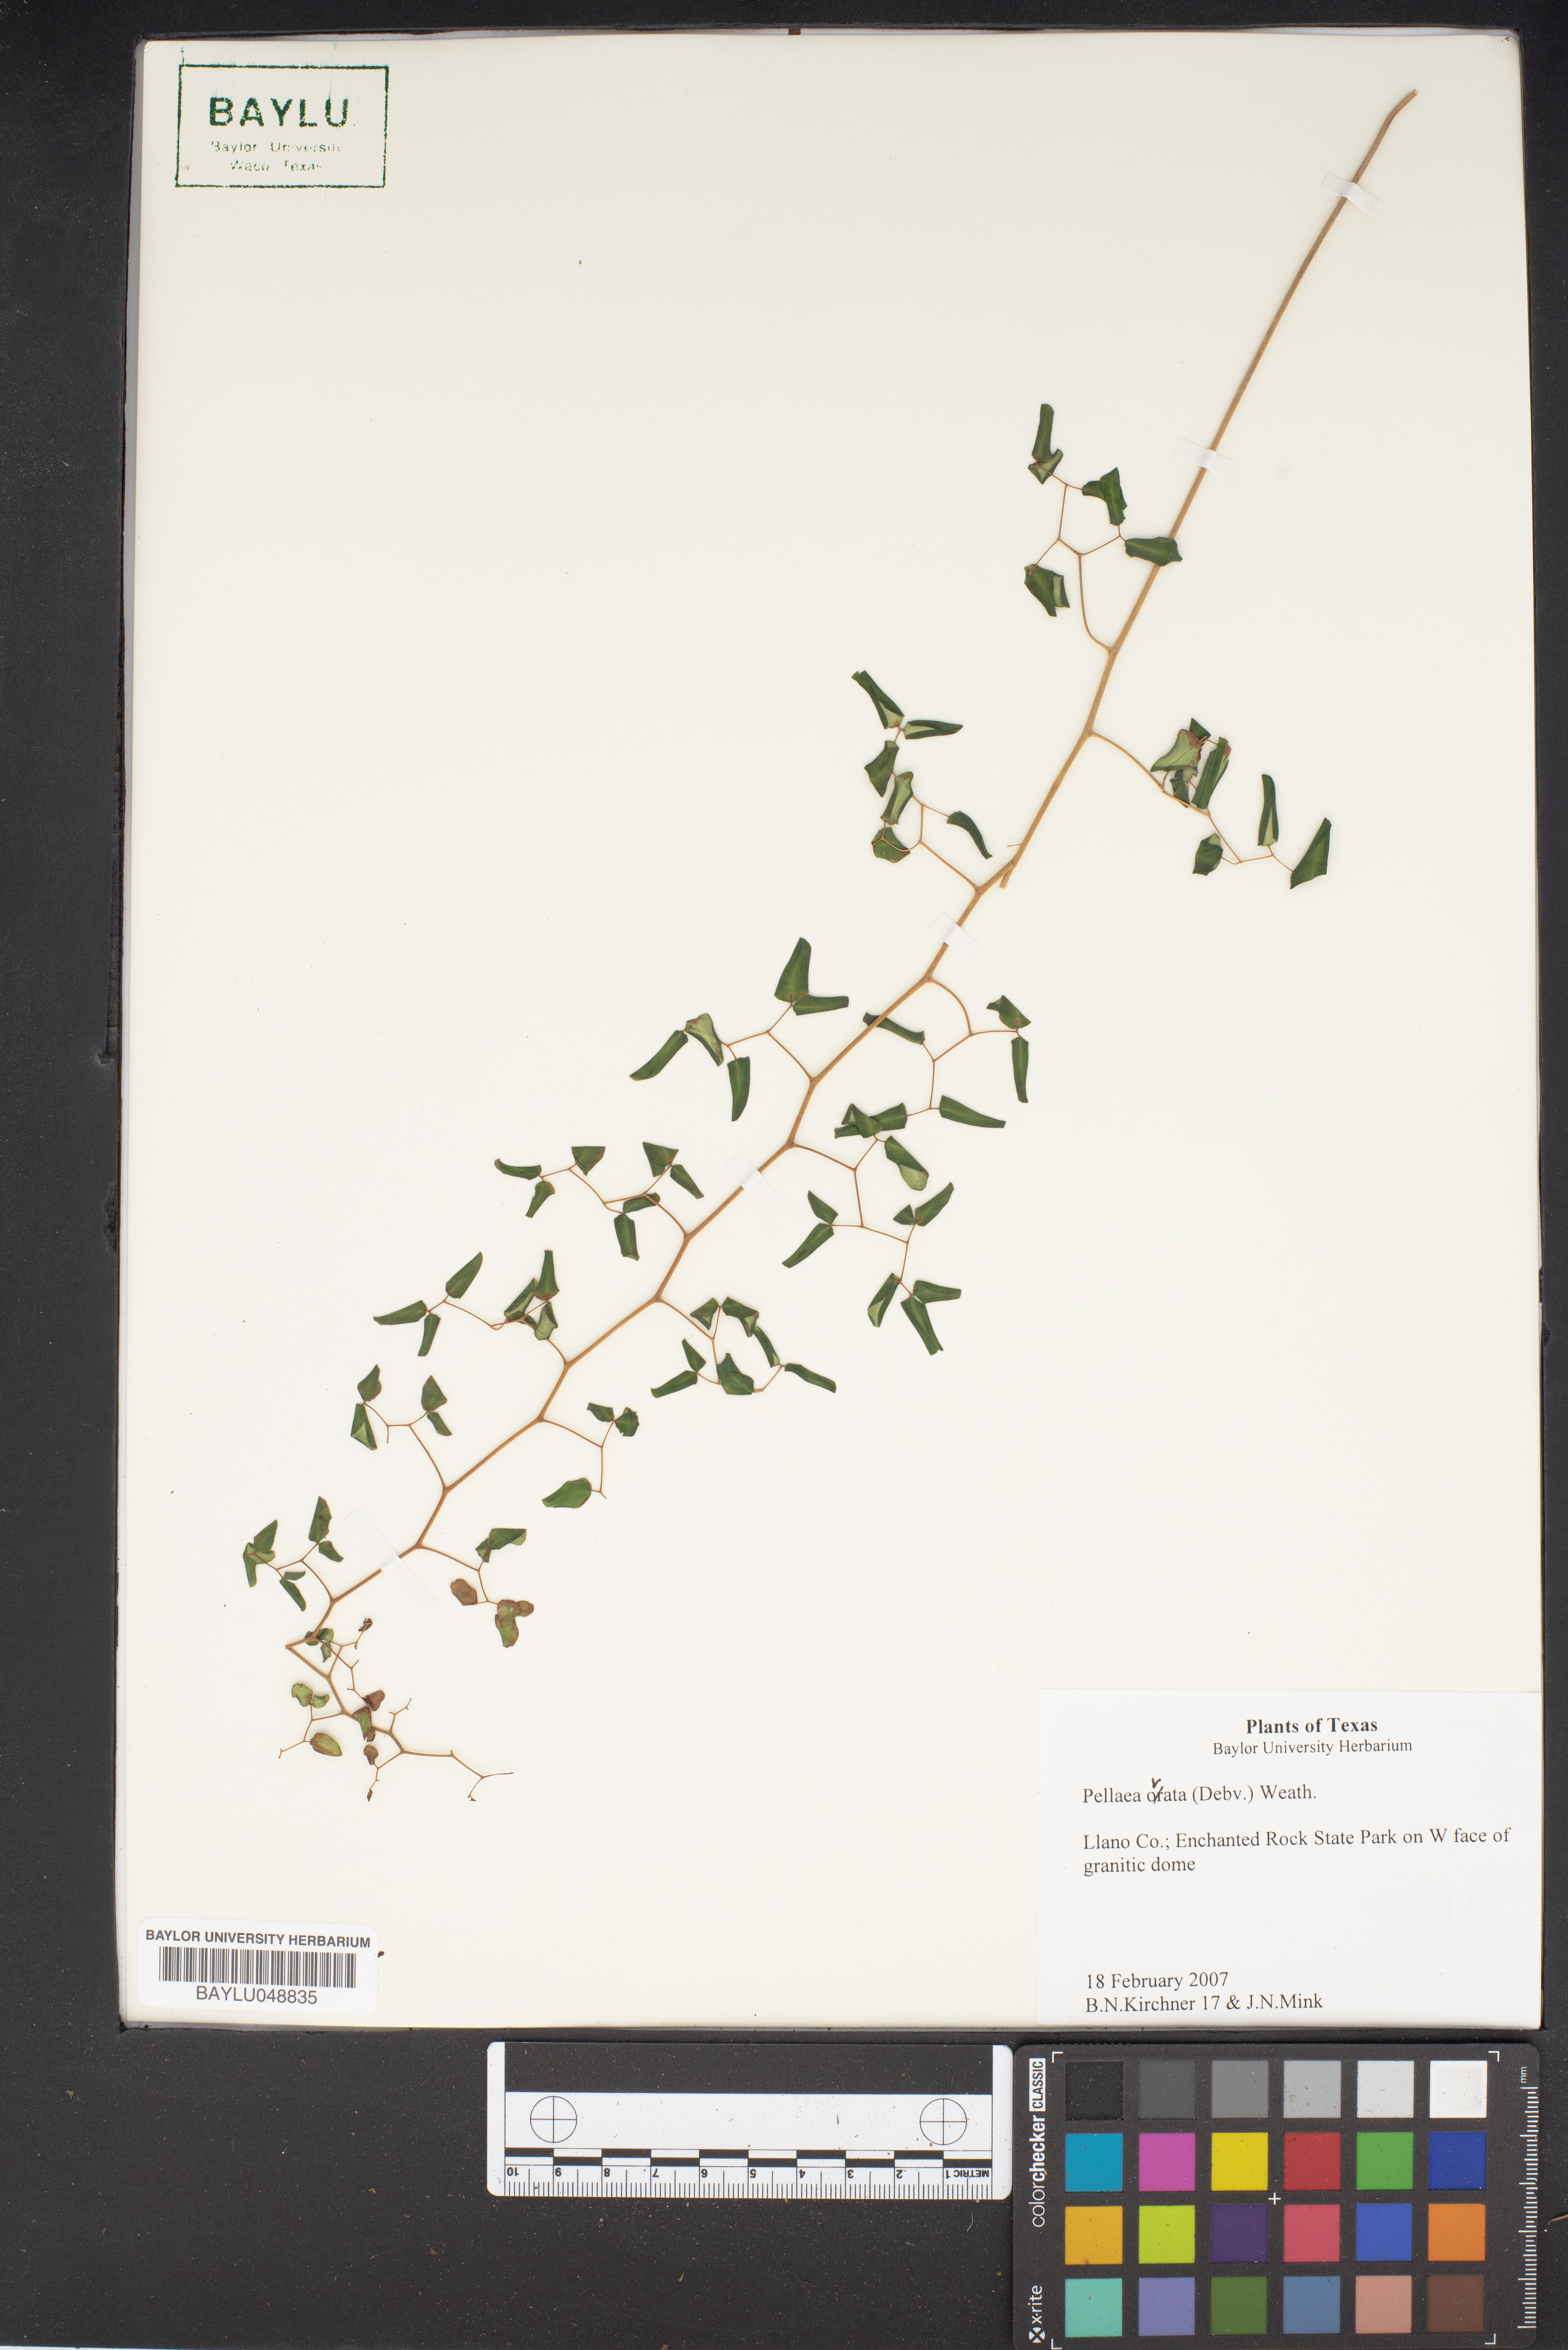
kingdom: Plantae
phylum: Tracheophyta
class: Polypodiopsida
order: Polypodiales
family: Pteridaceae
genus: Pellaea
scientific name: Pellaea ovata
